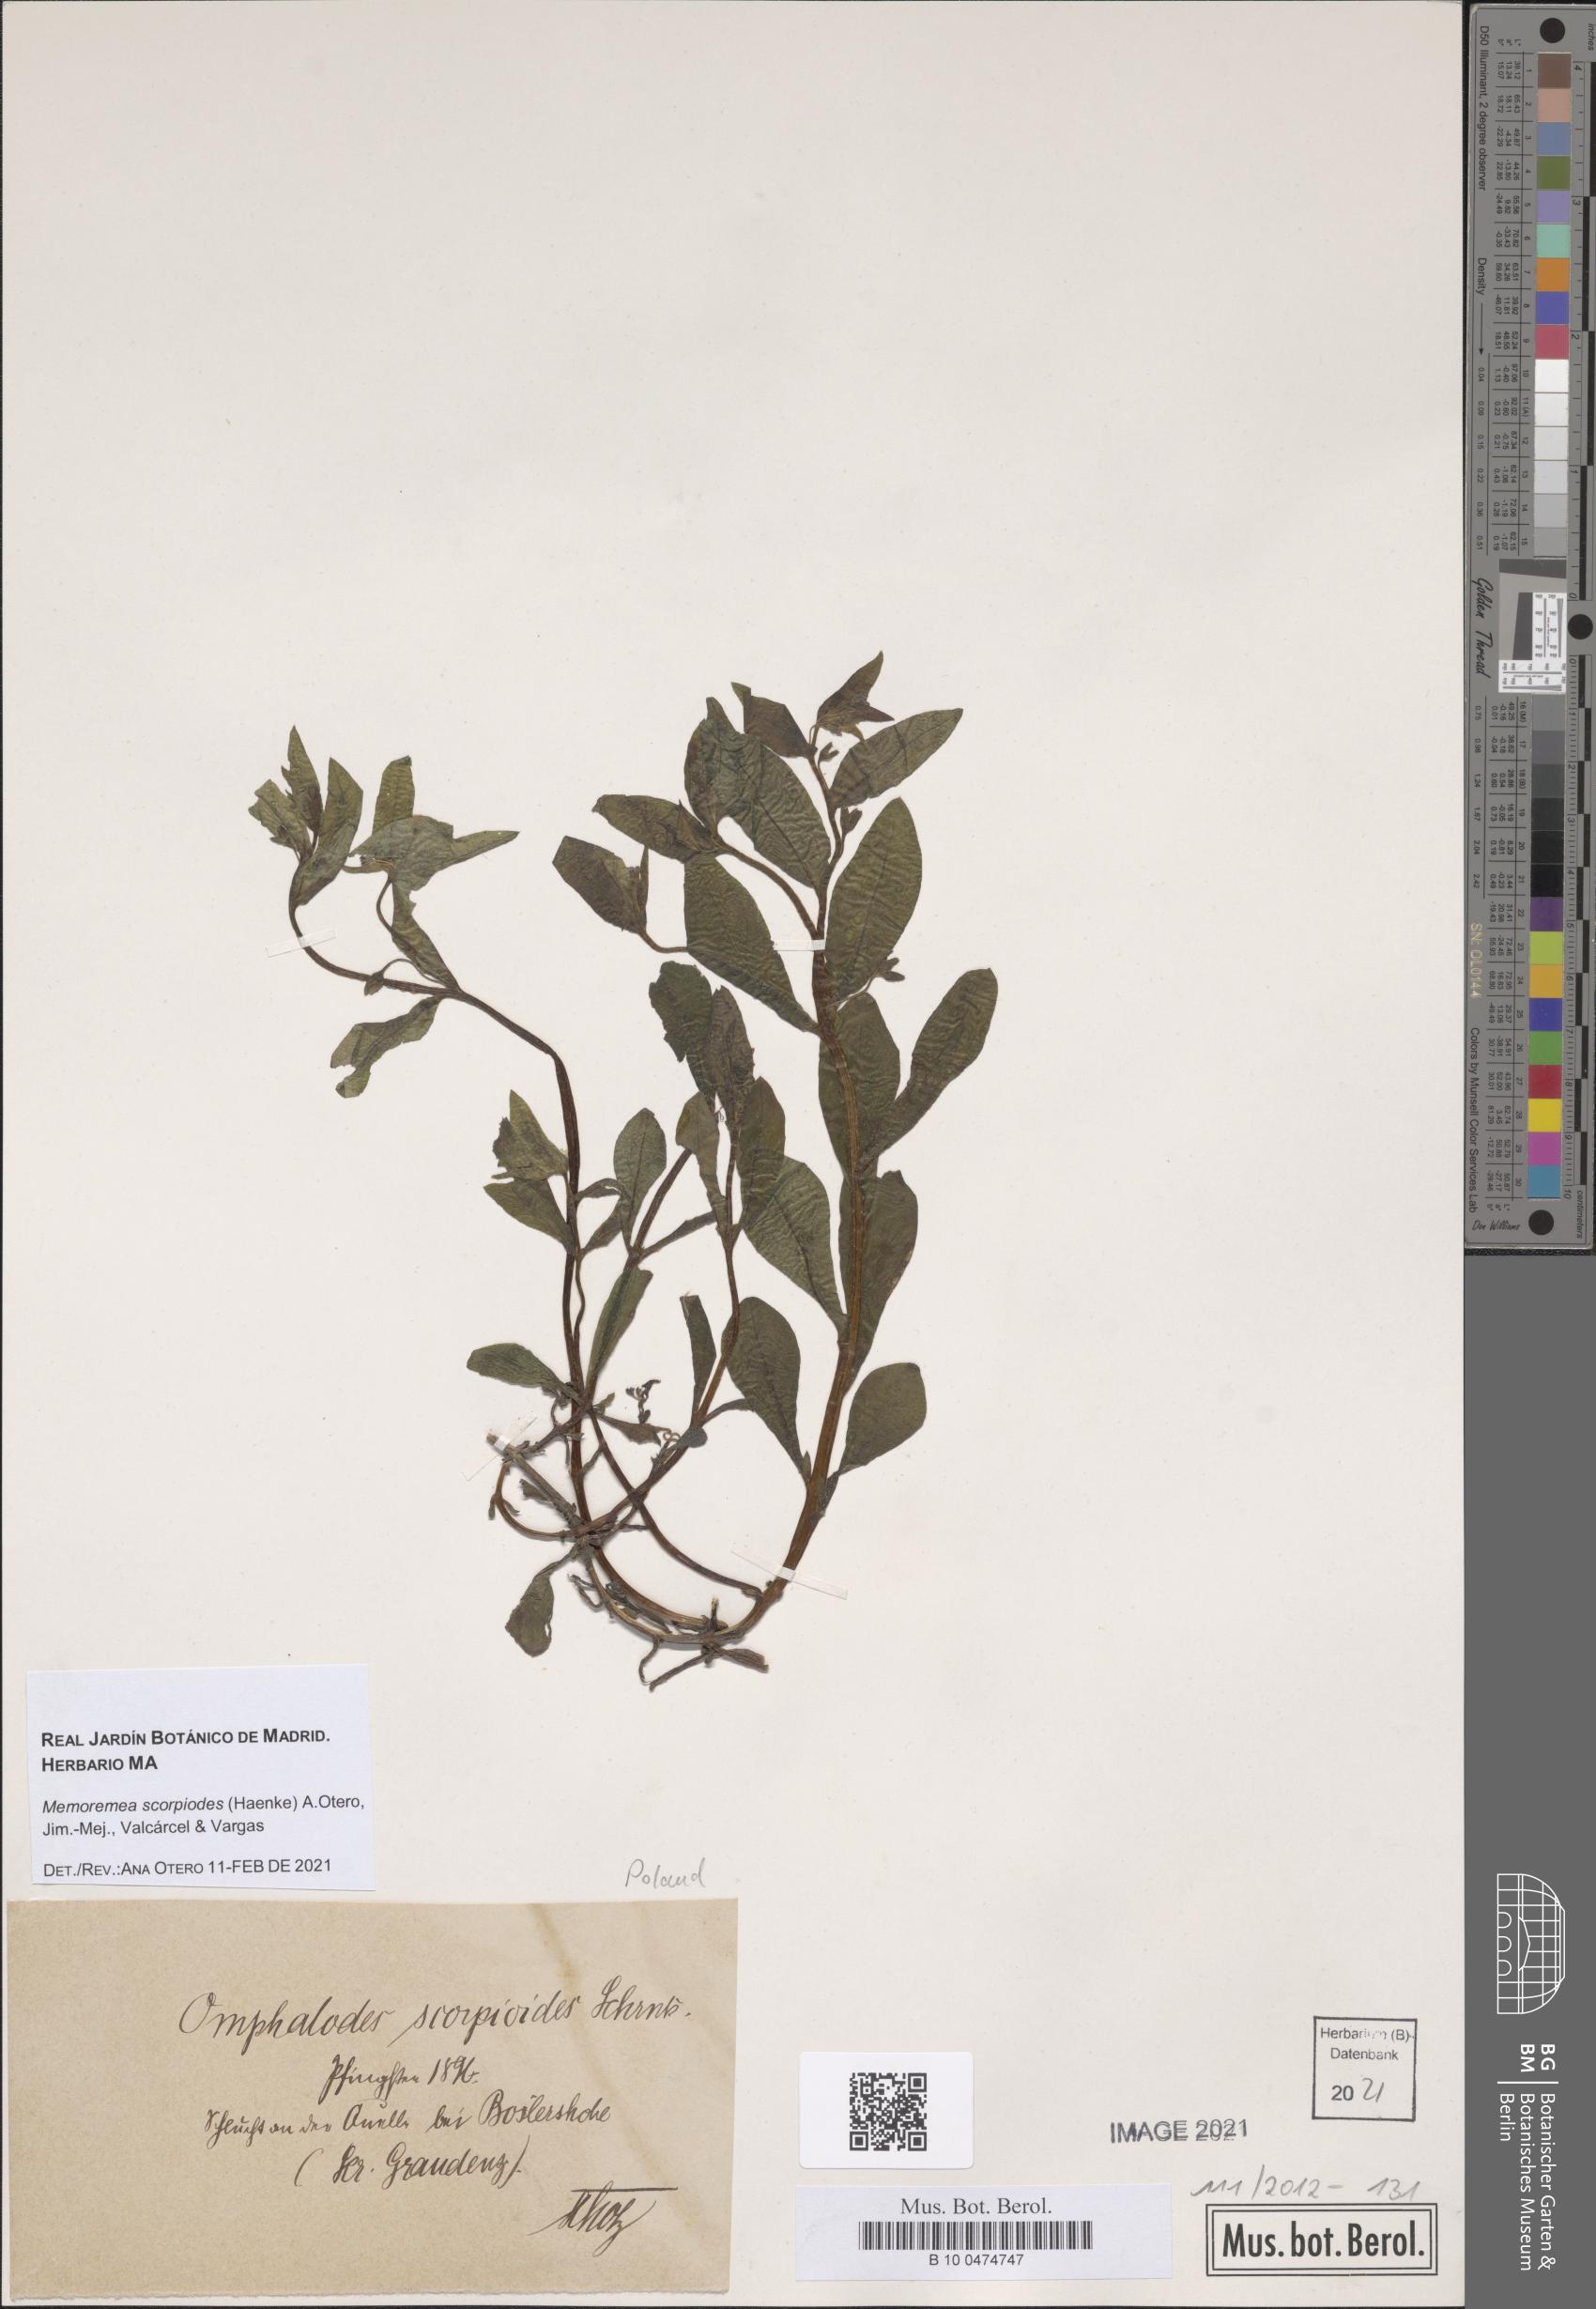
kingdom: Plantae
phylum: Tracheophyta
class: Magnoliopsida
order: Boraginales
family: Boraginaceae
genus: Memoremea
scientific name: Memoremea scorpioides
